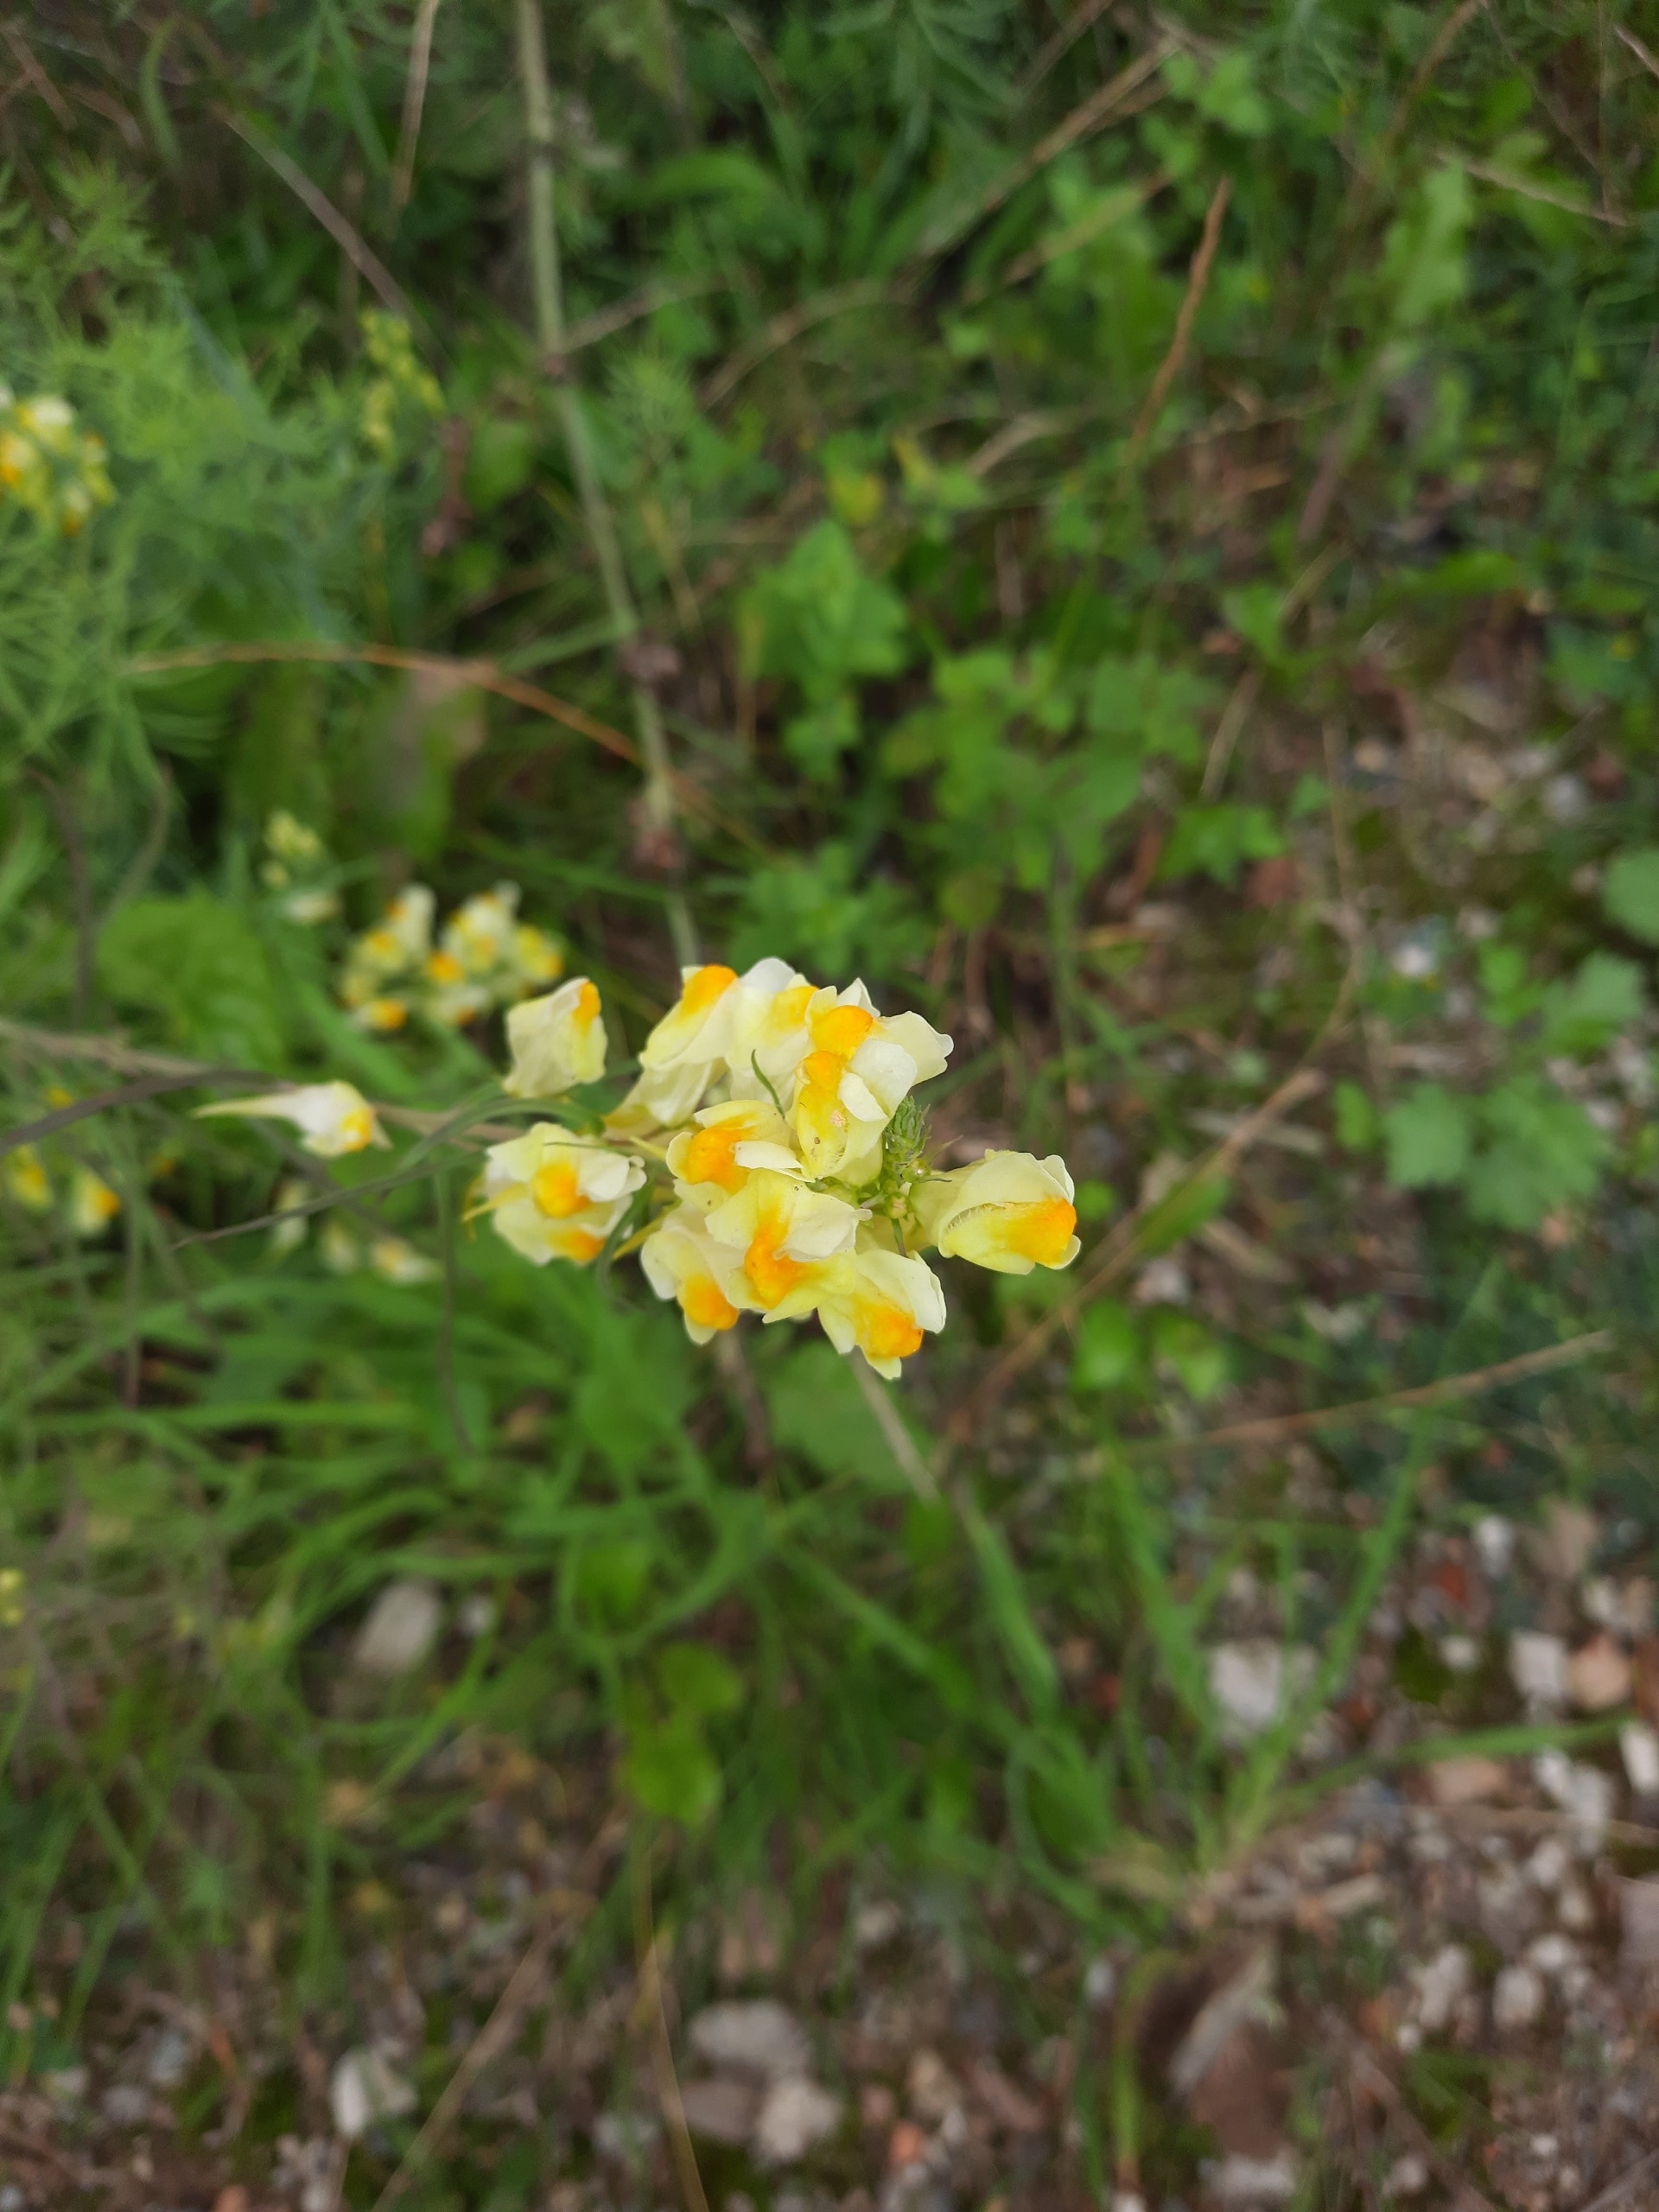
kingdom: Plantae
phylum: Tracheophyta
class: Magnoliopsida
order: Lamiales
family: Plantaginaceae
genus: Linaria
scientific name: Linaria vulgaris
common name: Almindelig torskemund
